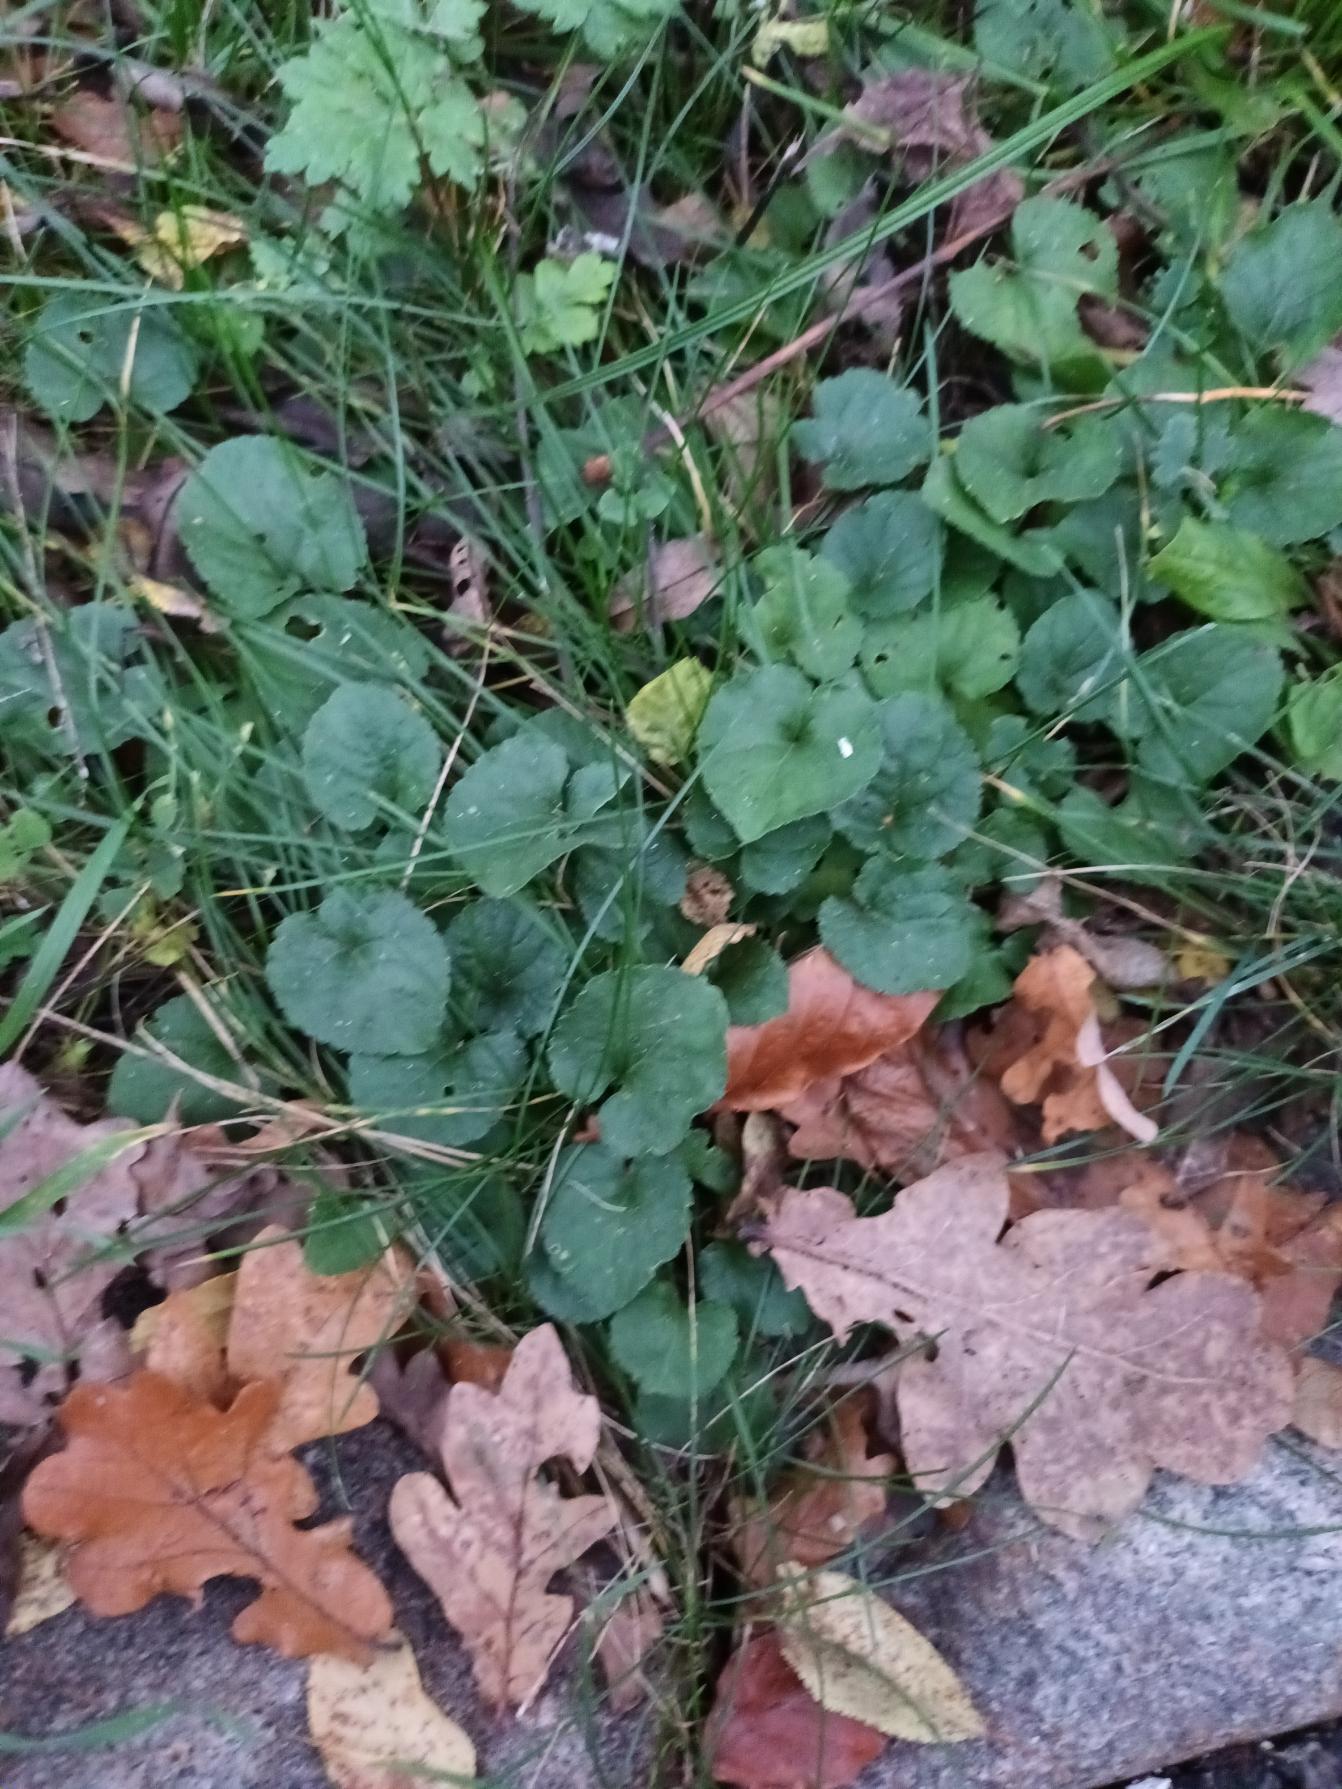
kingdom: Plantae
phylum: Tracheophyta
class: Magnoliopsida
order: Malpighiales
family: Violaceae
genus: Viola
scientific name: Viola odorata
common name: Marts-viol
